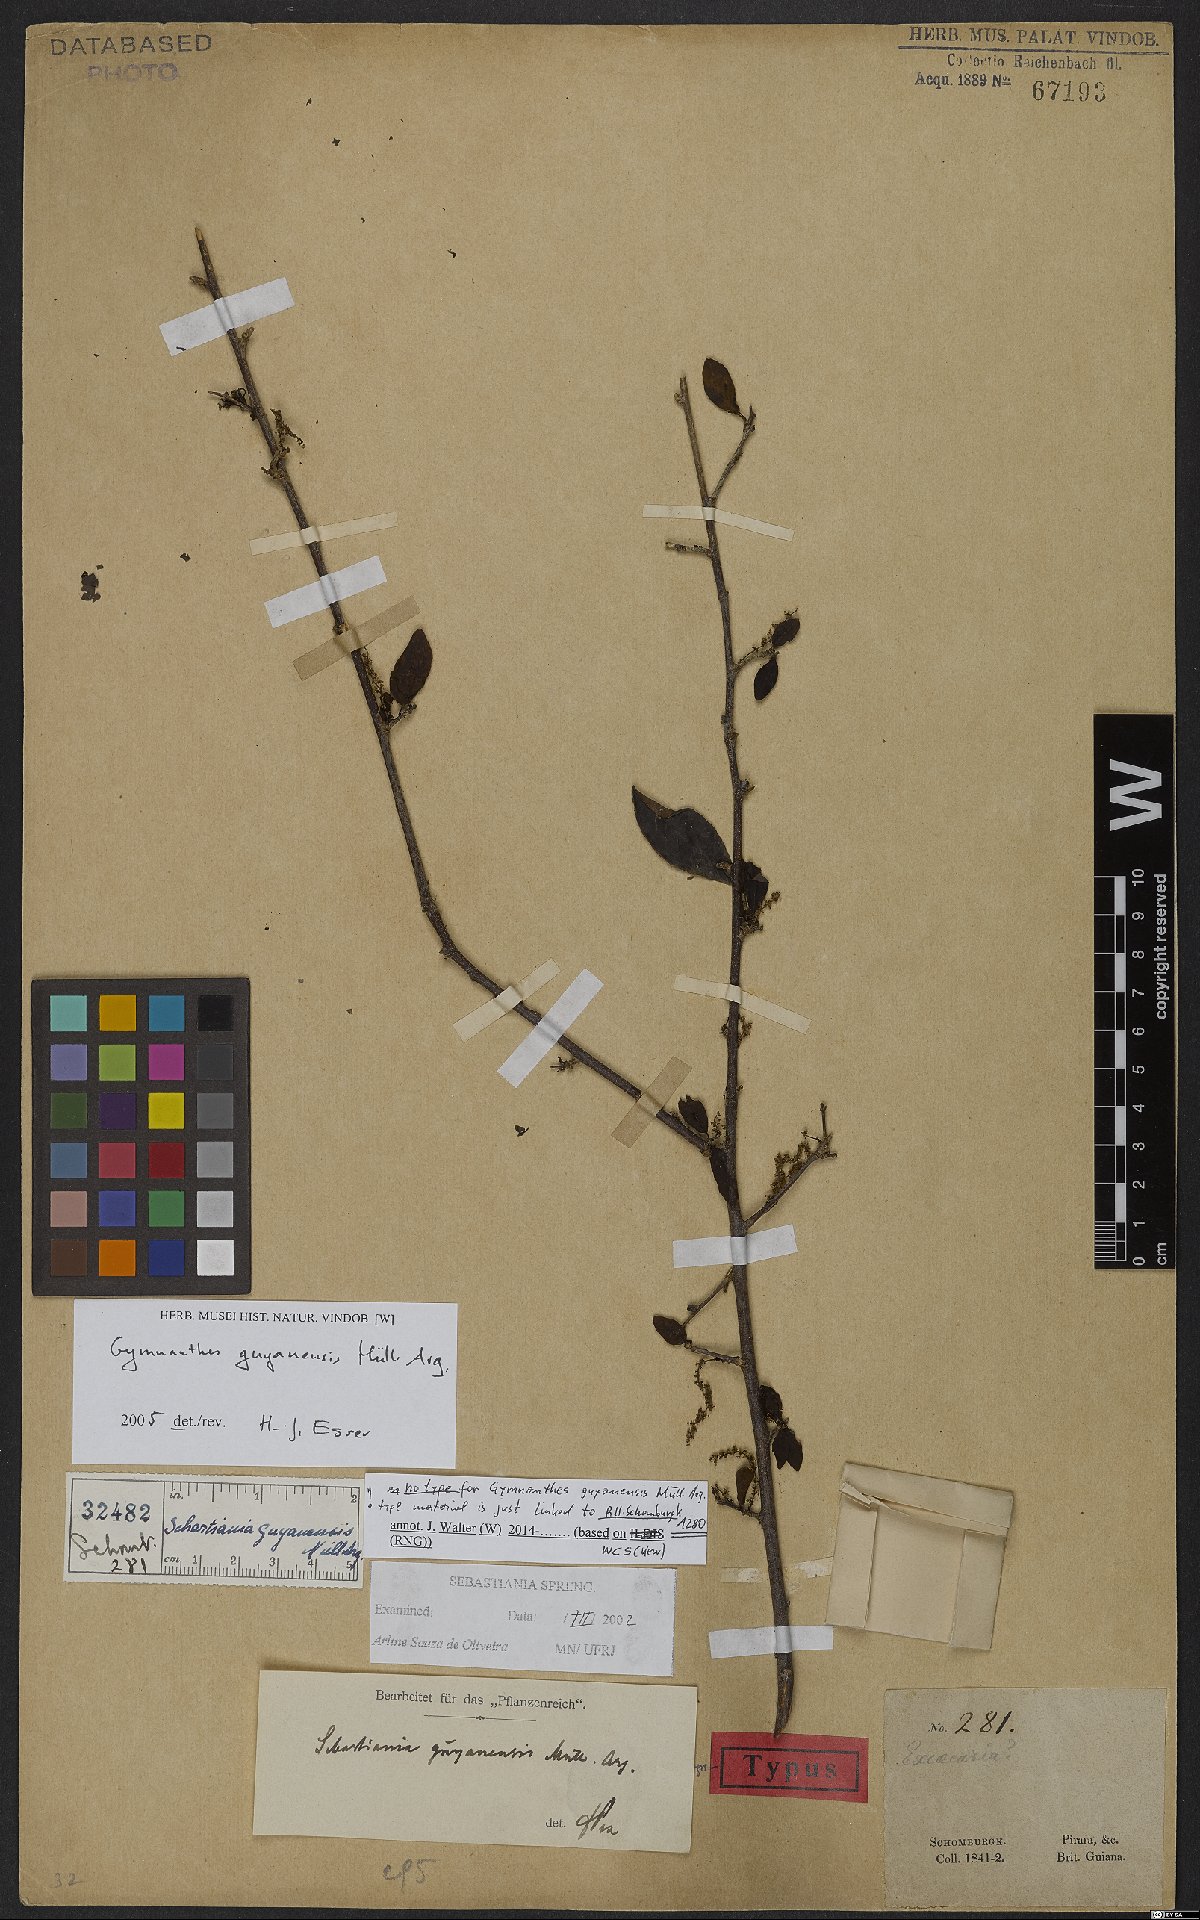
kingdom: Plantae
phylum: Tracheophyta
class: Magnoliopsida
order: Malpighiales
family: Euphorbiaceae
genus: Gymnanthes
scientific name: Gymnanthes guyanensis
